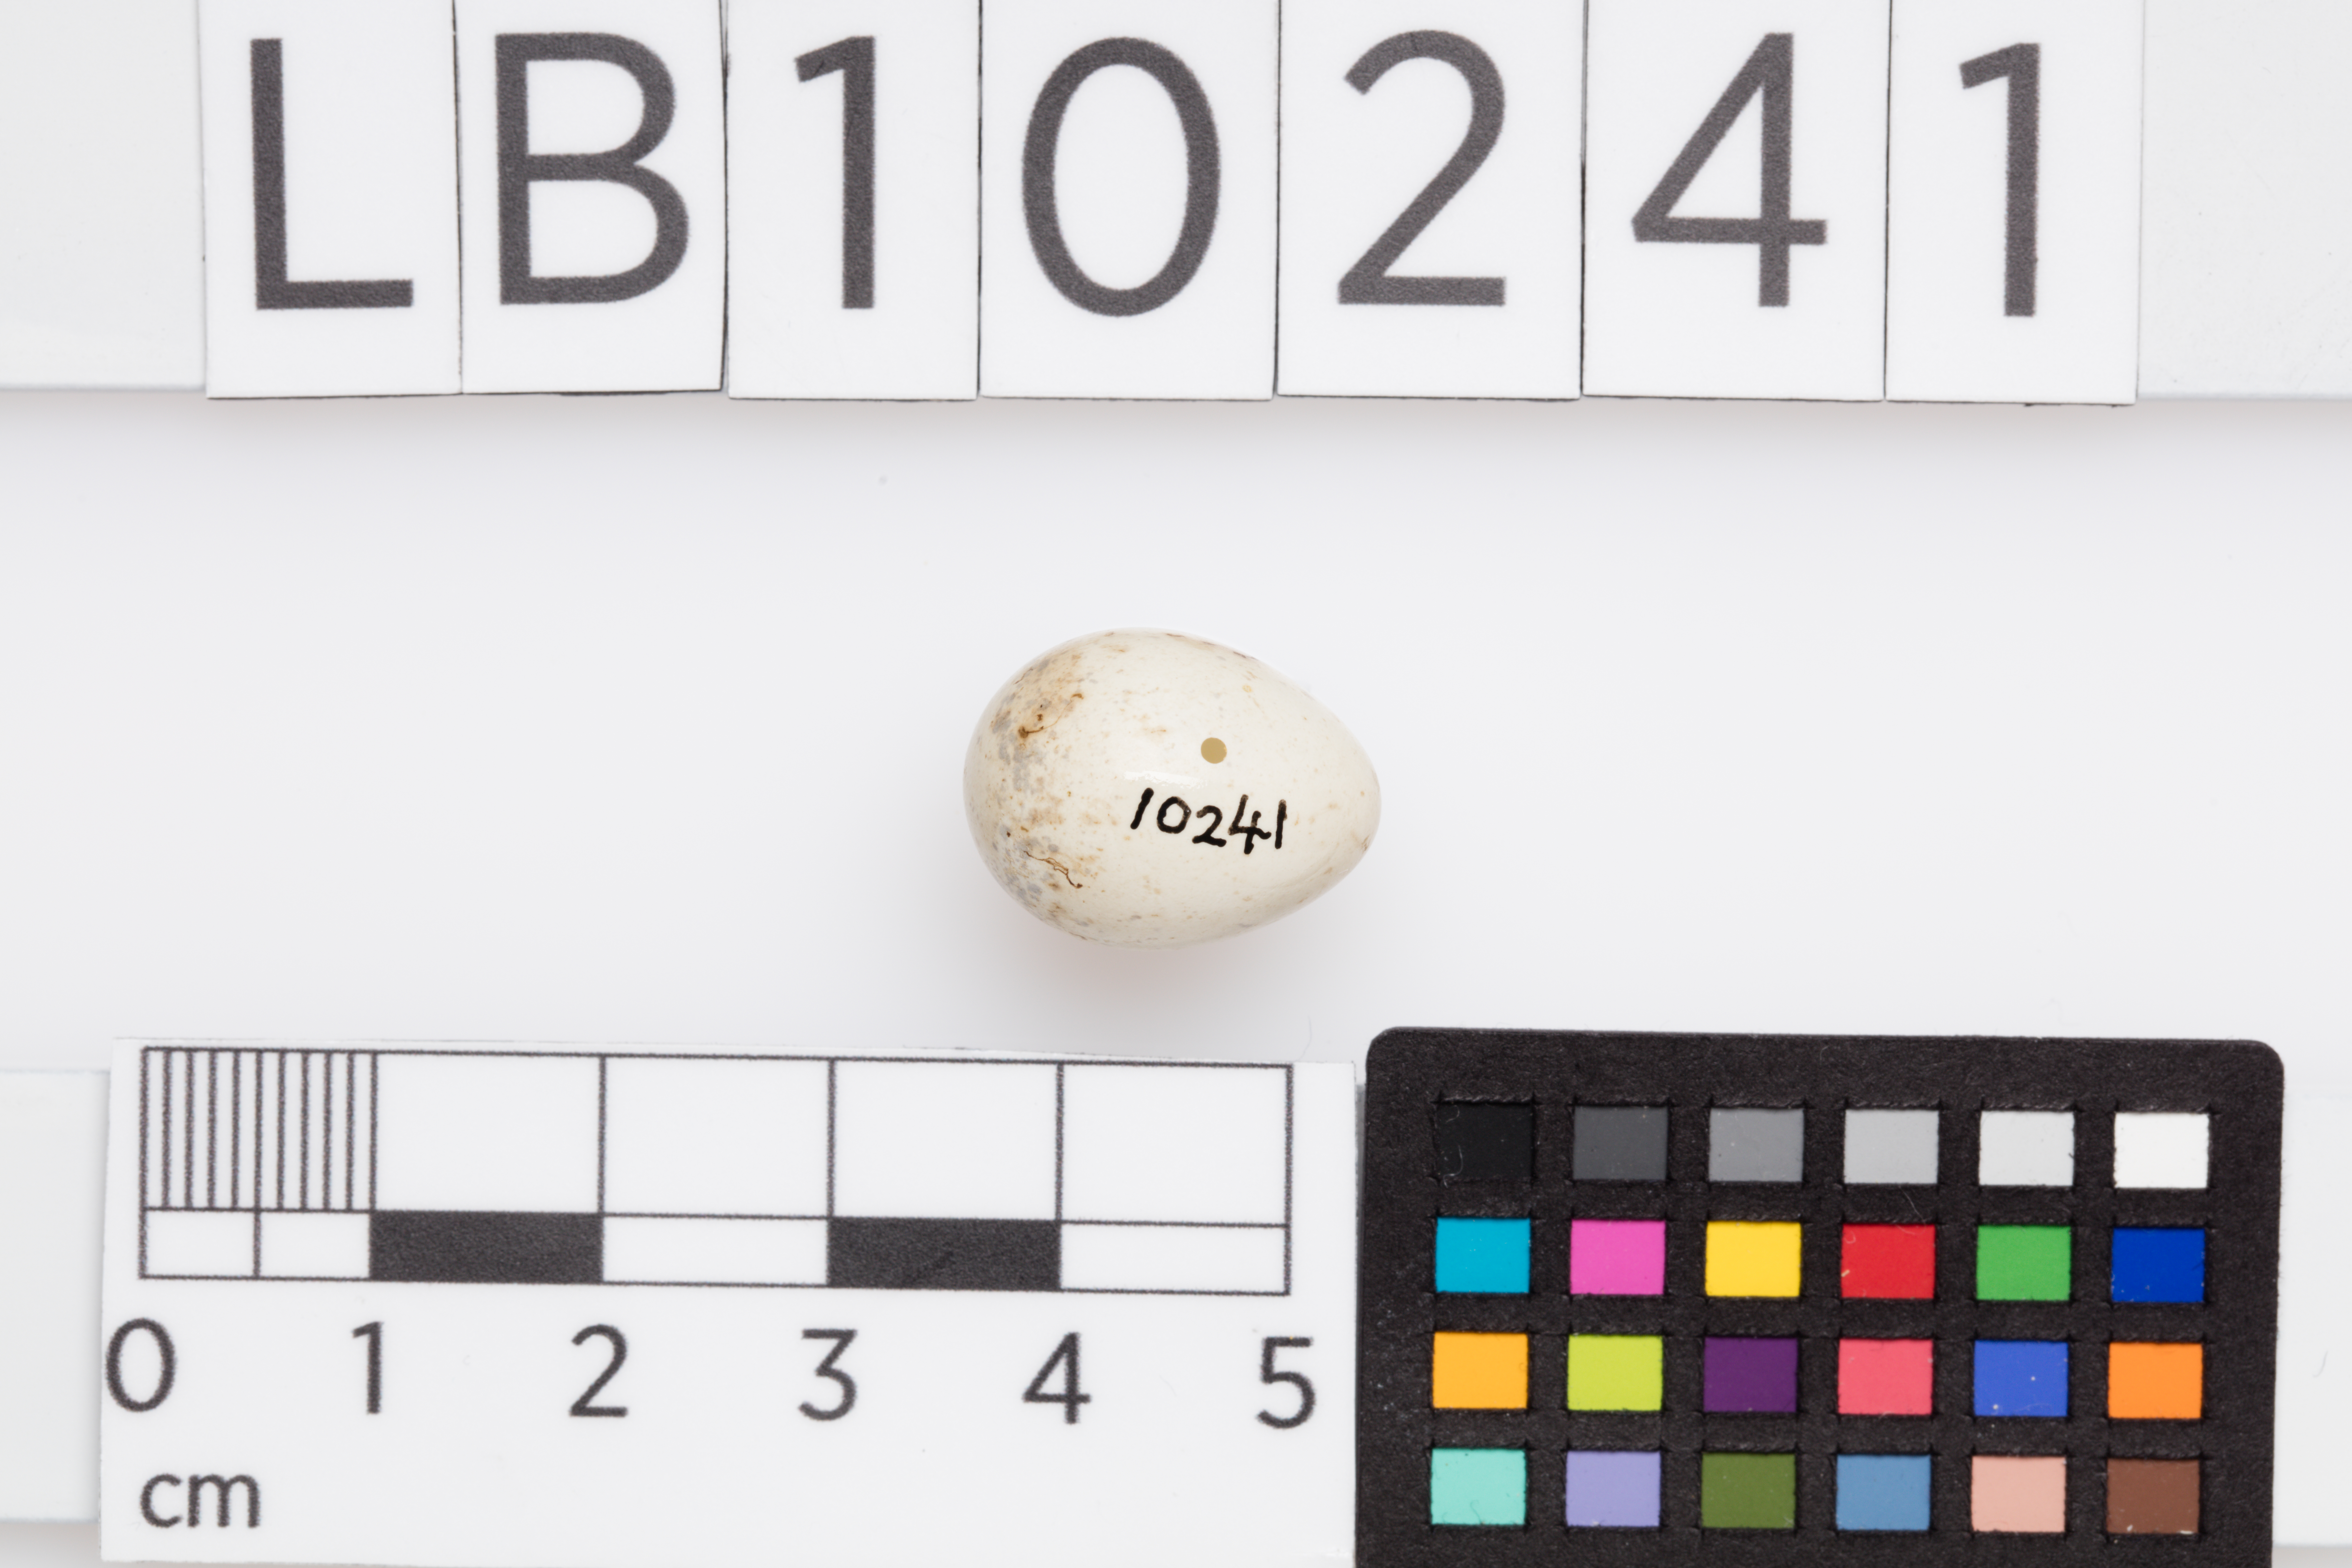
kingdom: Animalia
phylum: Chordata
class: Aves
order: Passeriformes
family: Sylviidae
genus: Sylvia
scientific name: Sylvia borin
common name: Garden warbler
